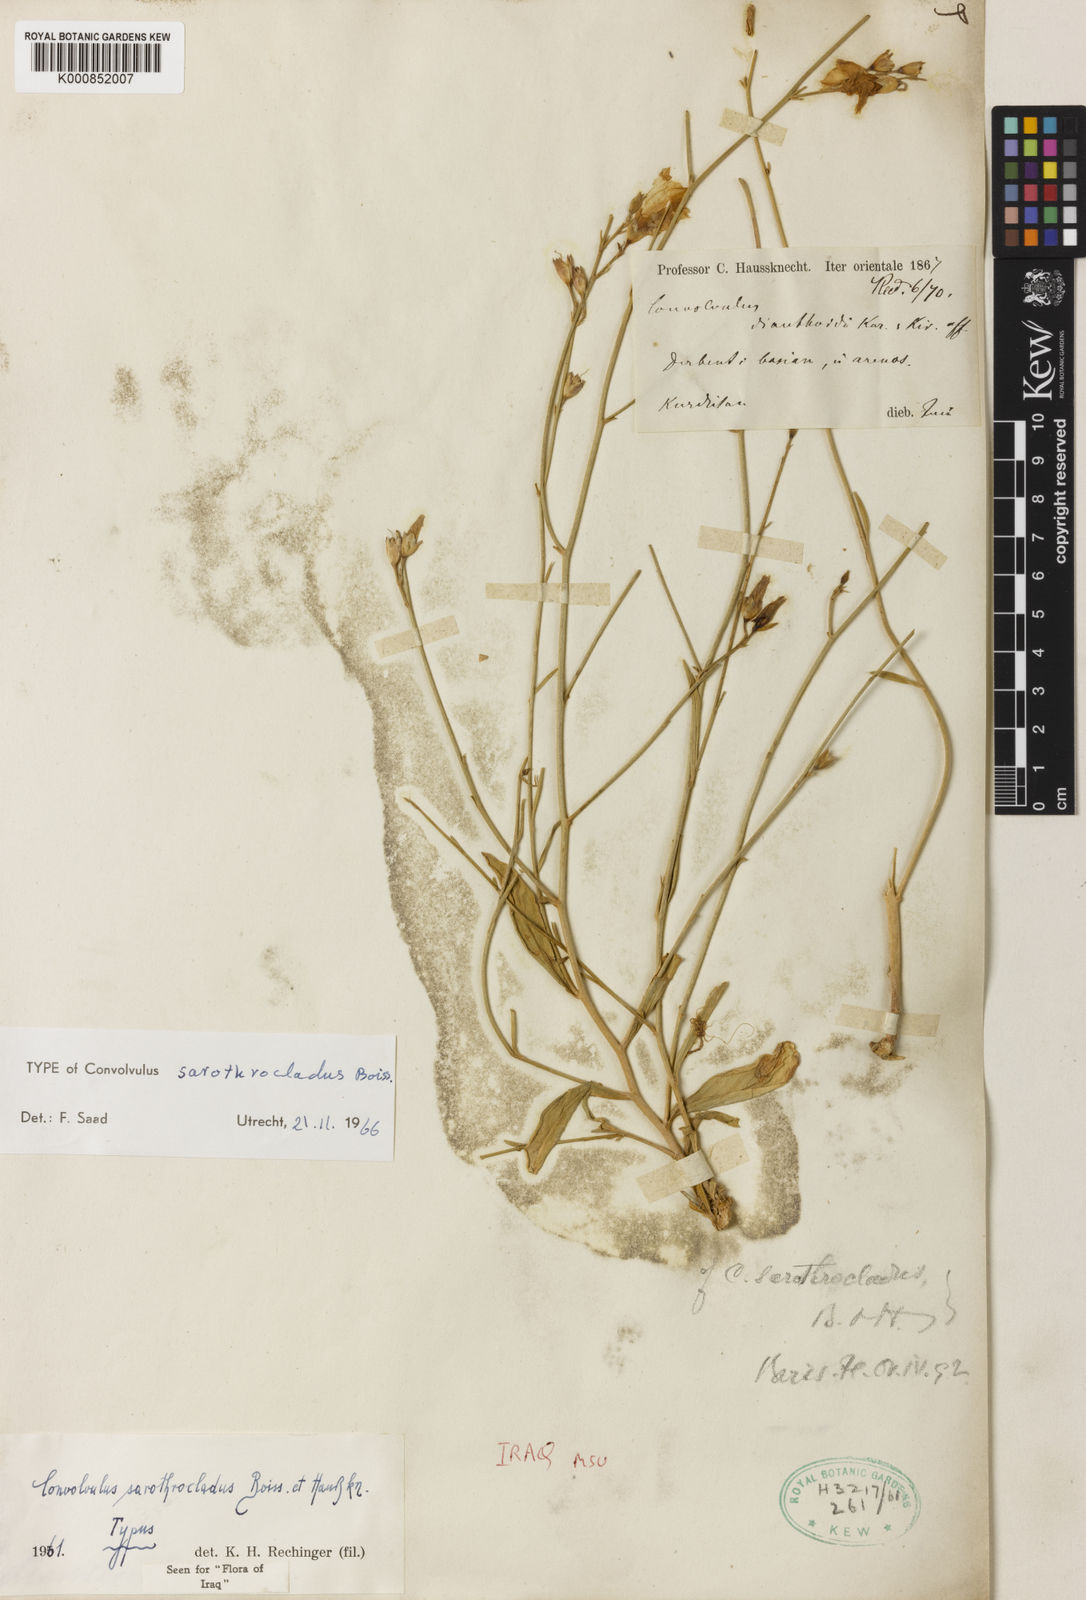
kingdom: Plantae
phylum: Tracheophyta
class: Magnoliopsida
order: Solanales
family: Convolvulaceae
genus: Convolvulus
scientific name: Convolvulus sarothrocladus
